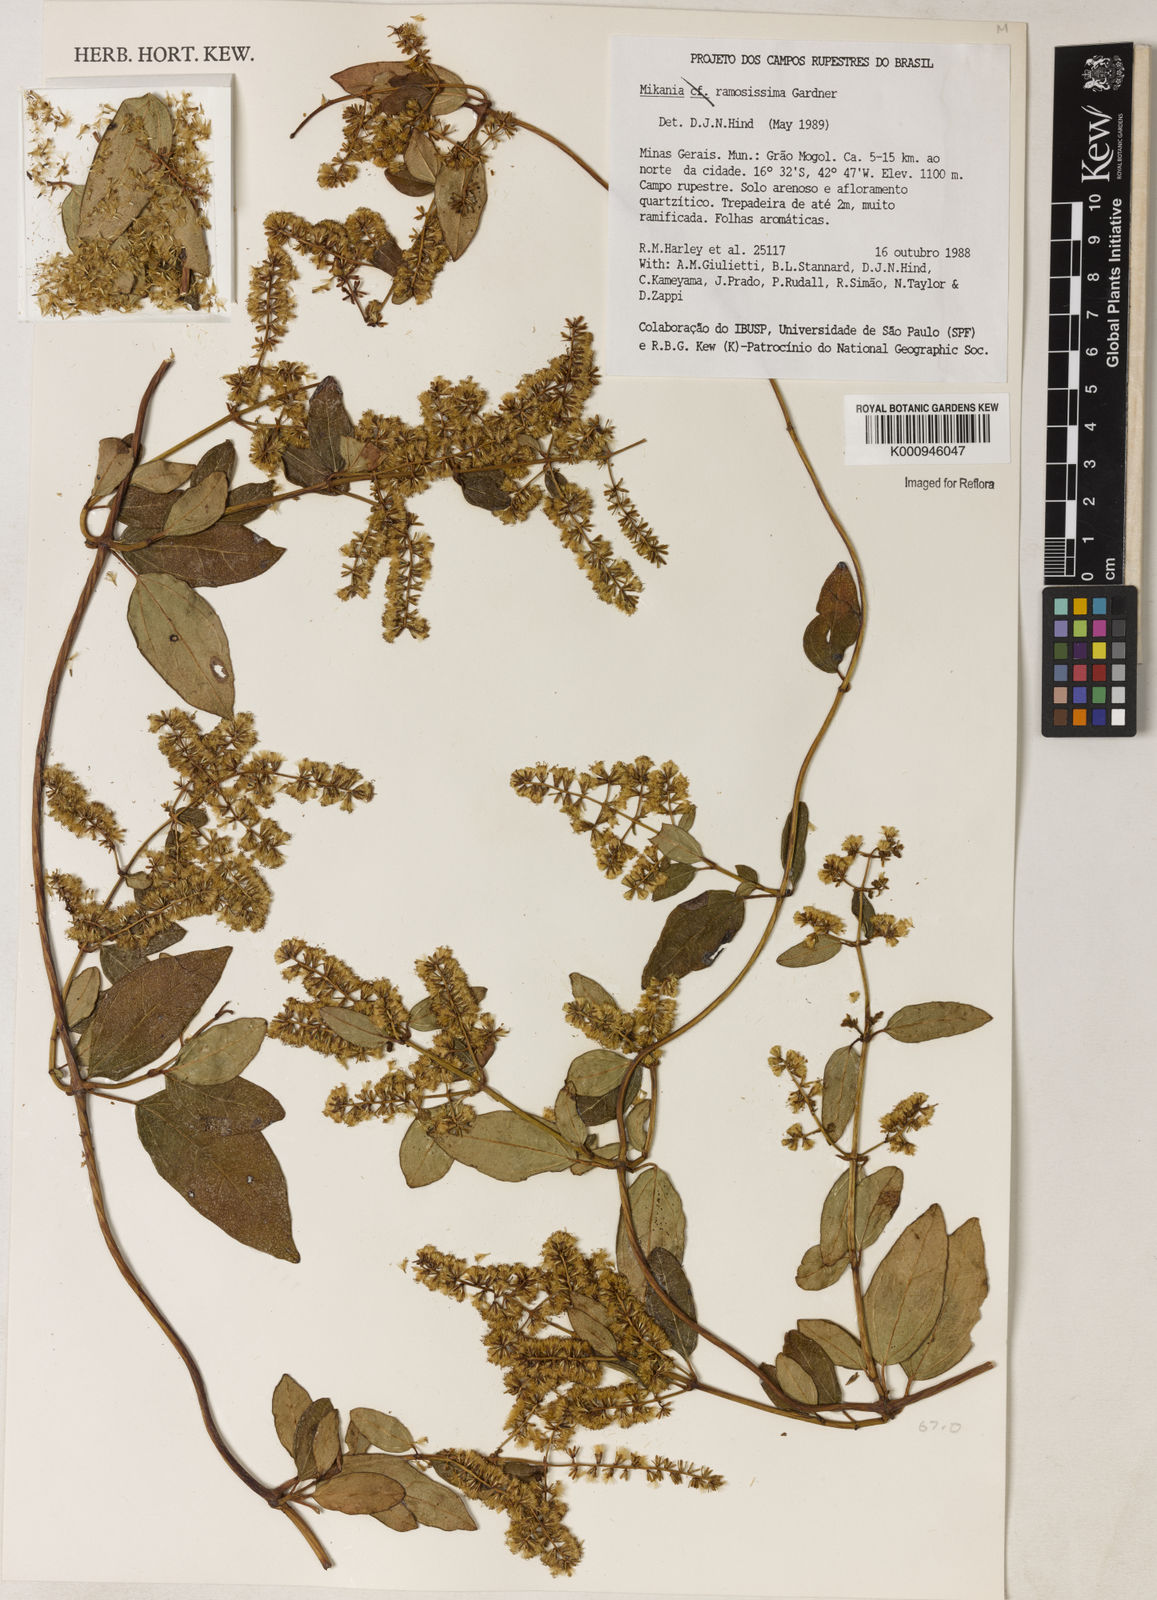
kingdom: Plantae
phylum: Tracheophyta
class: Magnoliopsida
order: Asterales
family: Asteraceae
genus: Mikania
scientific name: Mikania ramosissima
